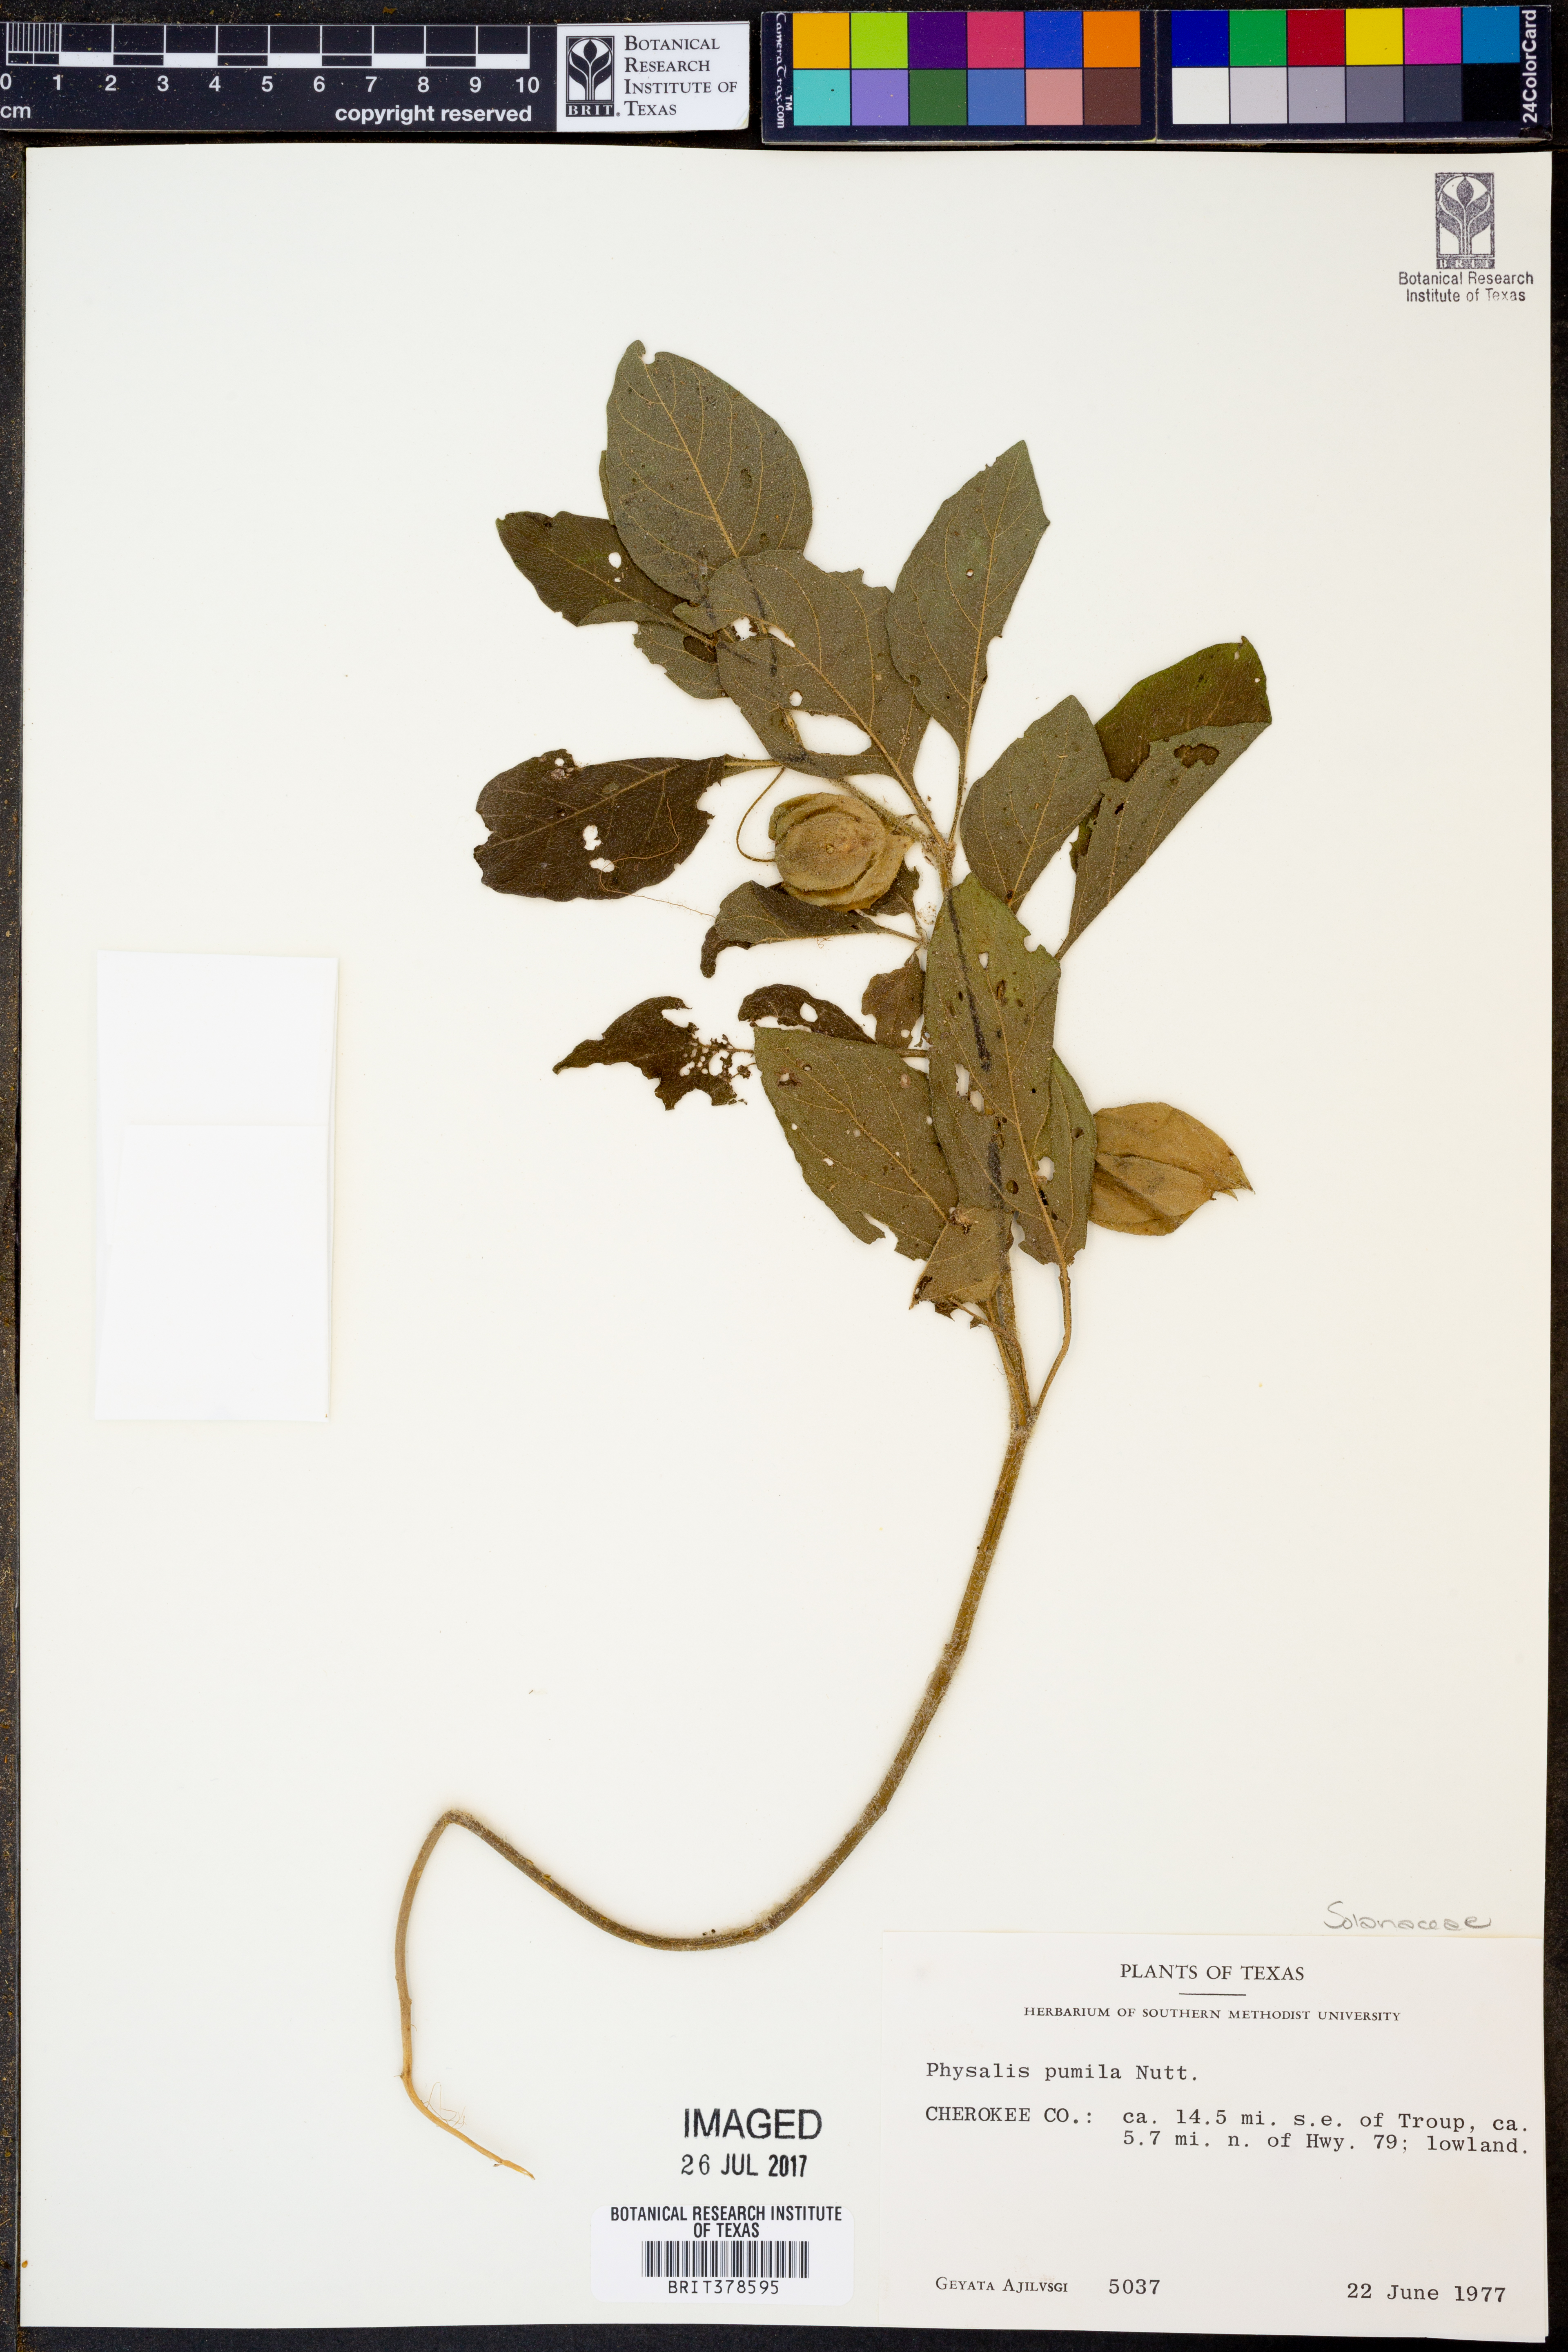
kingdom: Plantae
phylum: Tracheophyta
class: Magnoliopsida
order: Solanales
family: Solanaceae
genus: Physalis
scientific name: Physalis pumila
